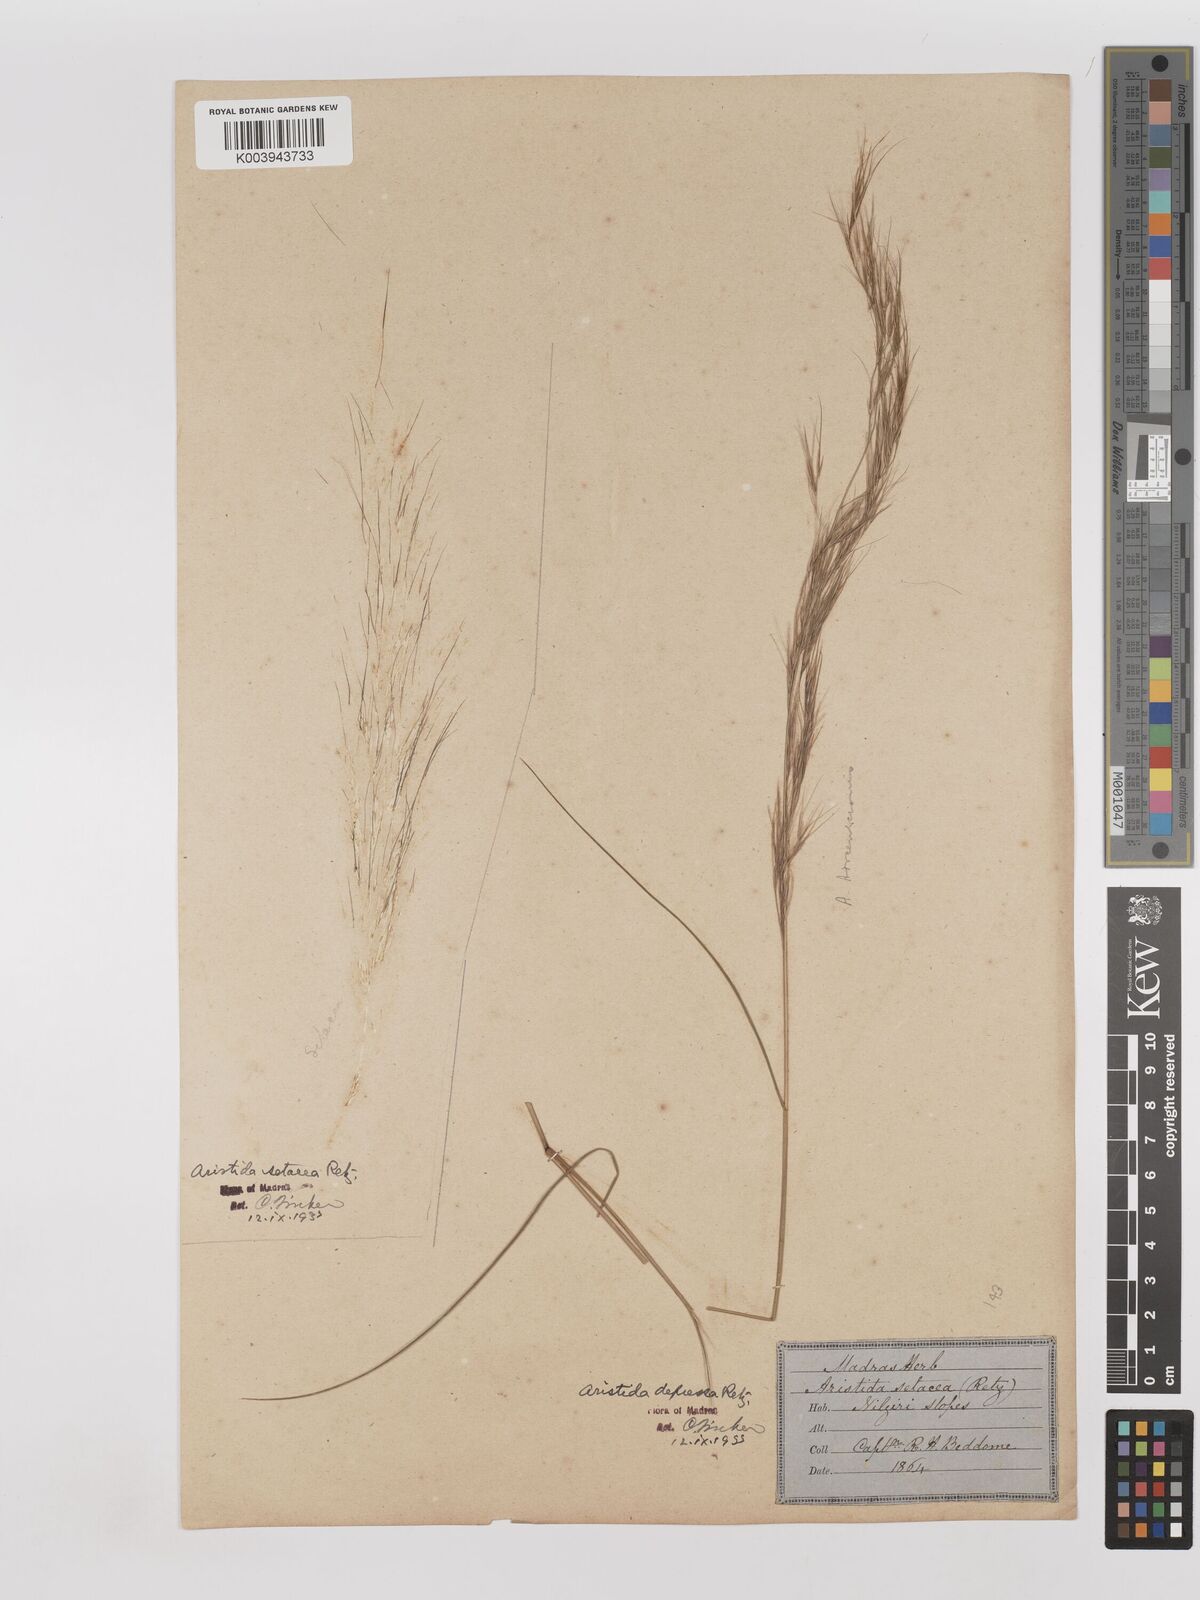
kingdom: Plantae
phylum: Tracheophyta
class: Liliopsida
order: Poales
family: Poaceae
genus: Aristida
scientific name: Aristida adscensionis
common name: Sixweeks threeawn
